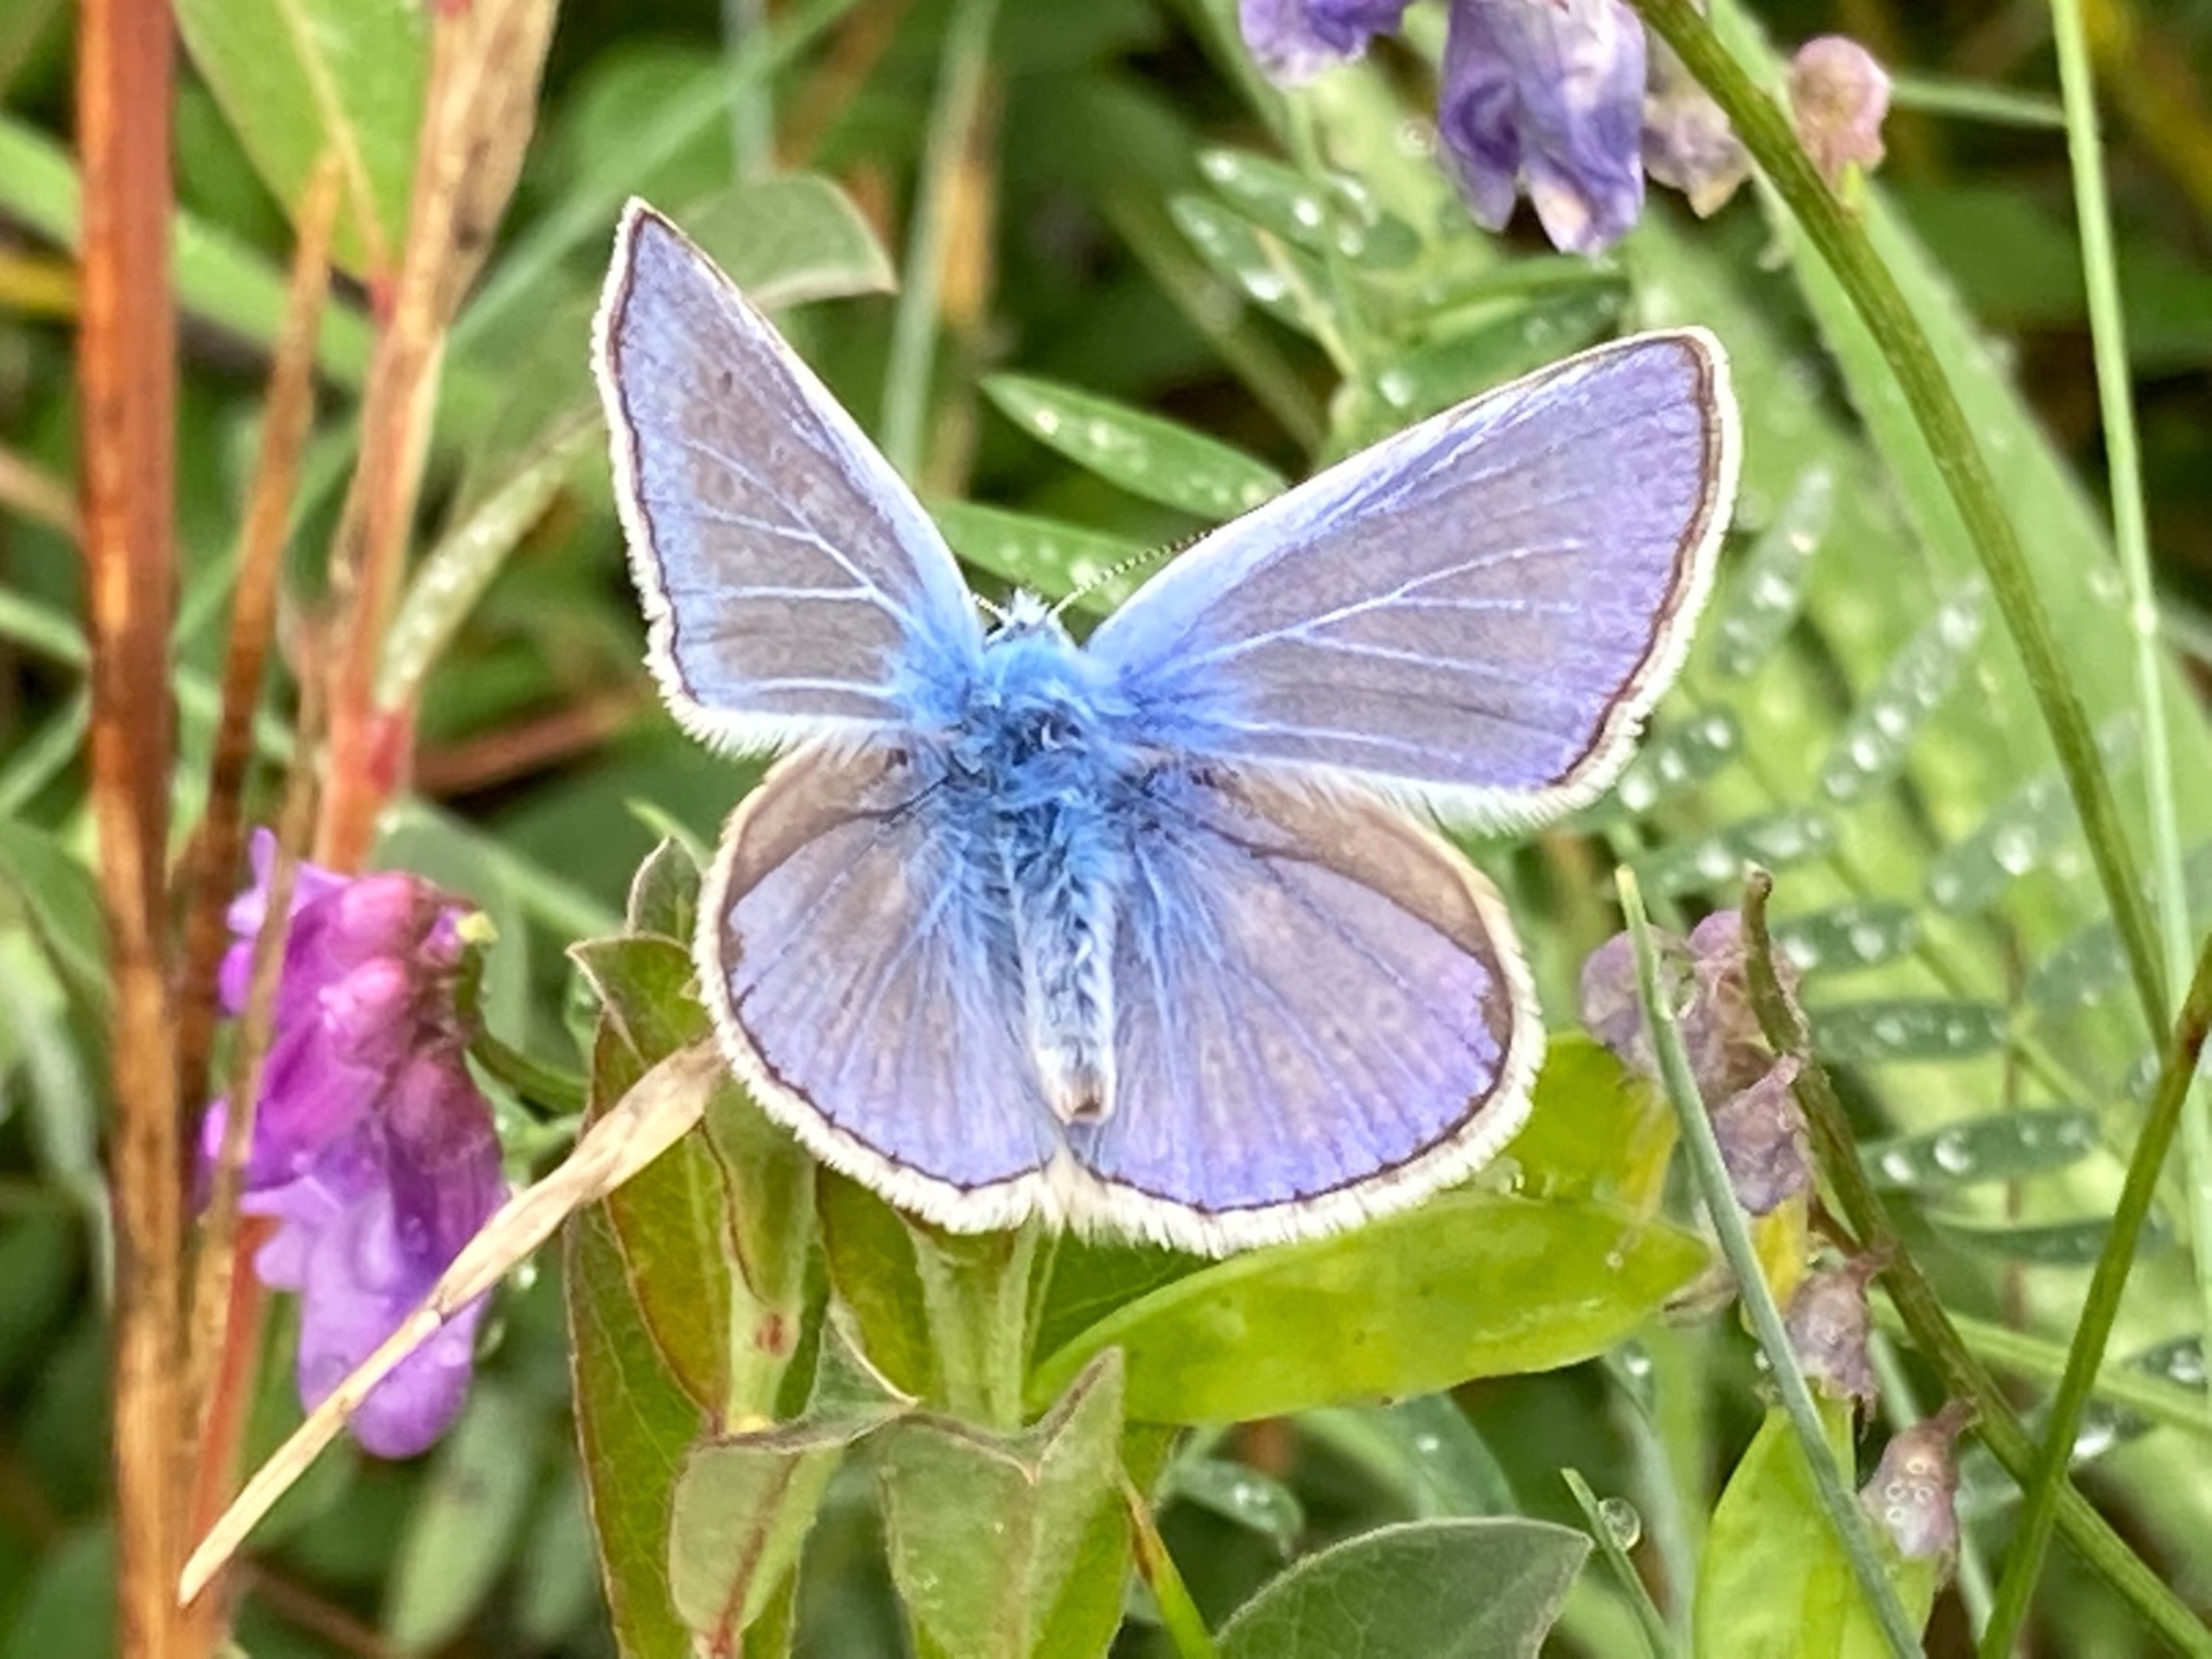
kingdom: Animalia
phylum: Arthropoda
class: Insecta
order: Lepidoptera
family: Lycaenidae
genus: Polyommatus
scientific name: Polyommatus icarus
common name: Almindelig blåfugl
